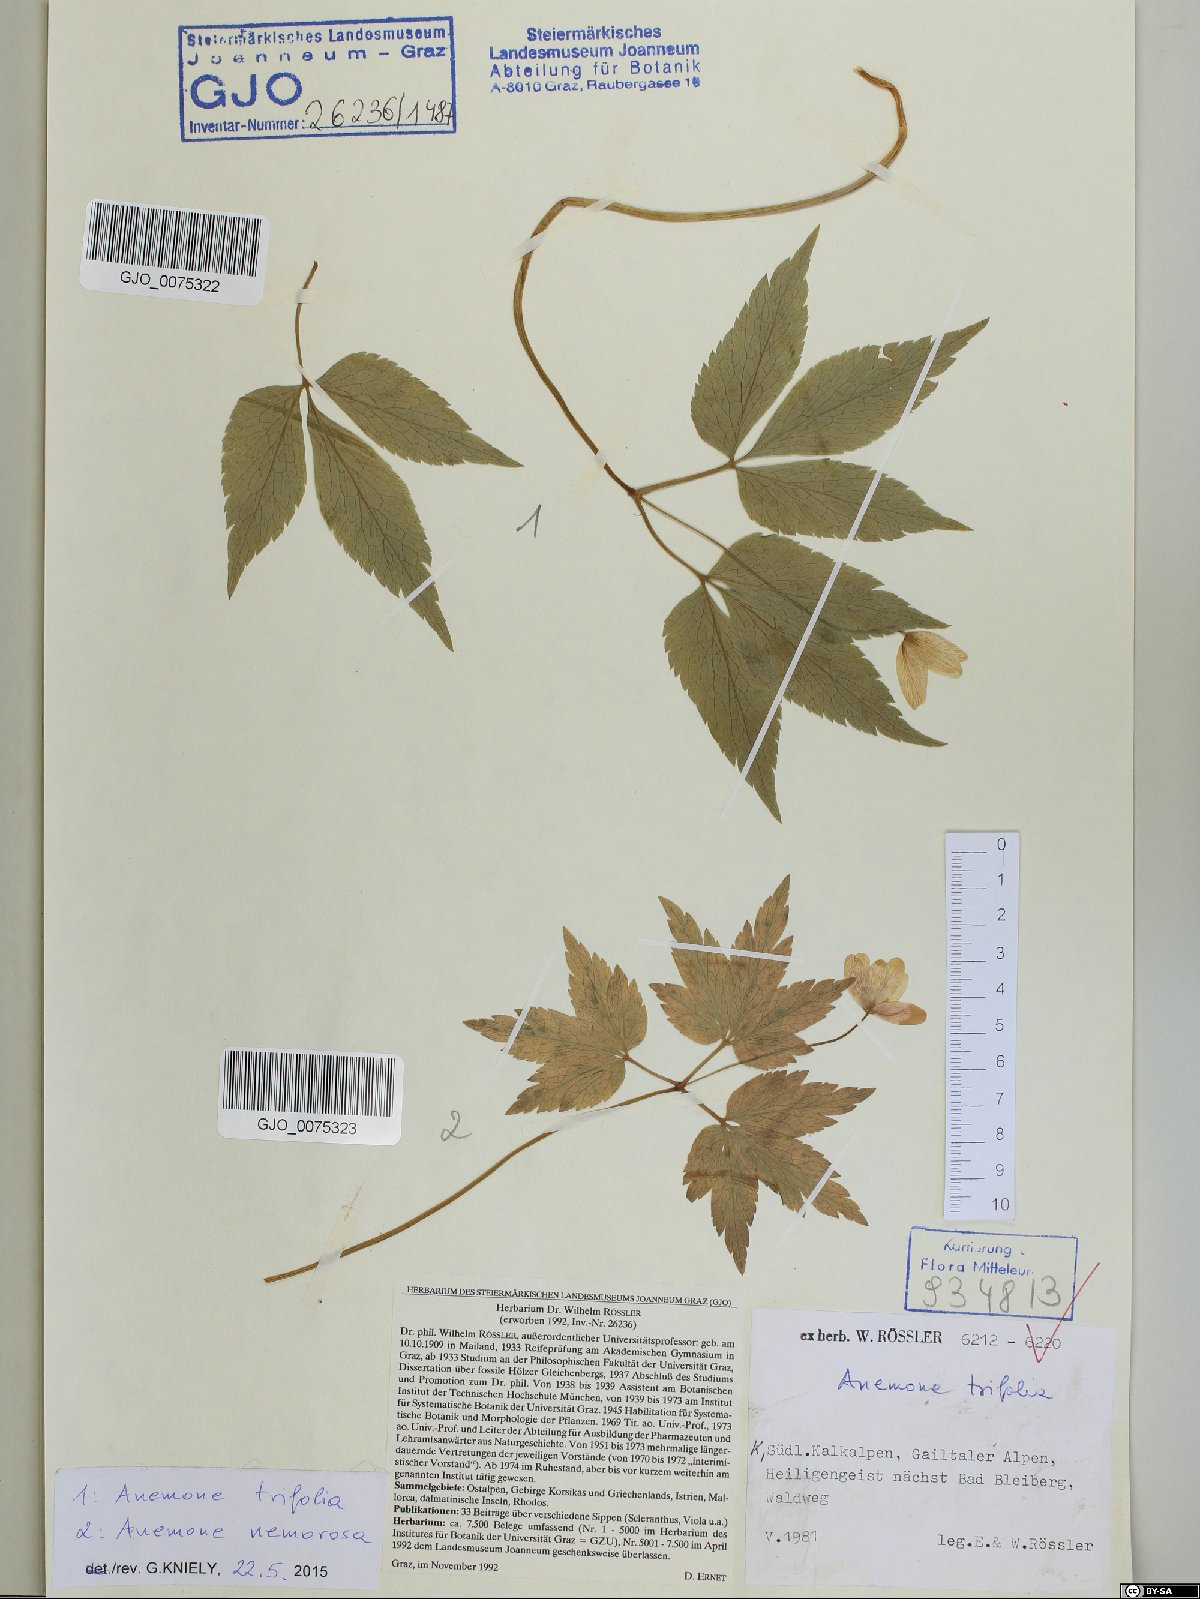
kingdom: Plantae
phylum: Tracheophyta
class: Magnoliopsida
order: Ranunculales
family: Ranunculaceae
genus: Anemone
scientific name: Anemone trifolia
